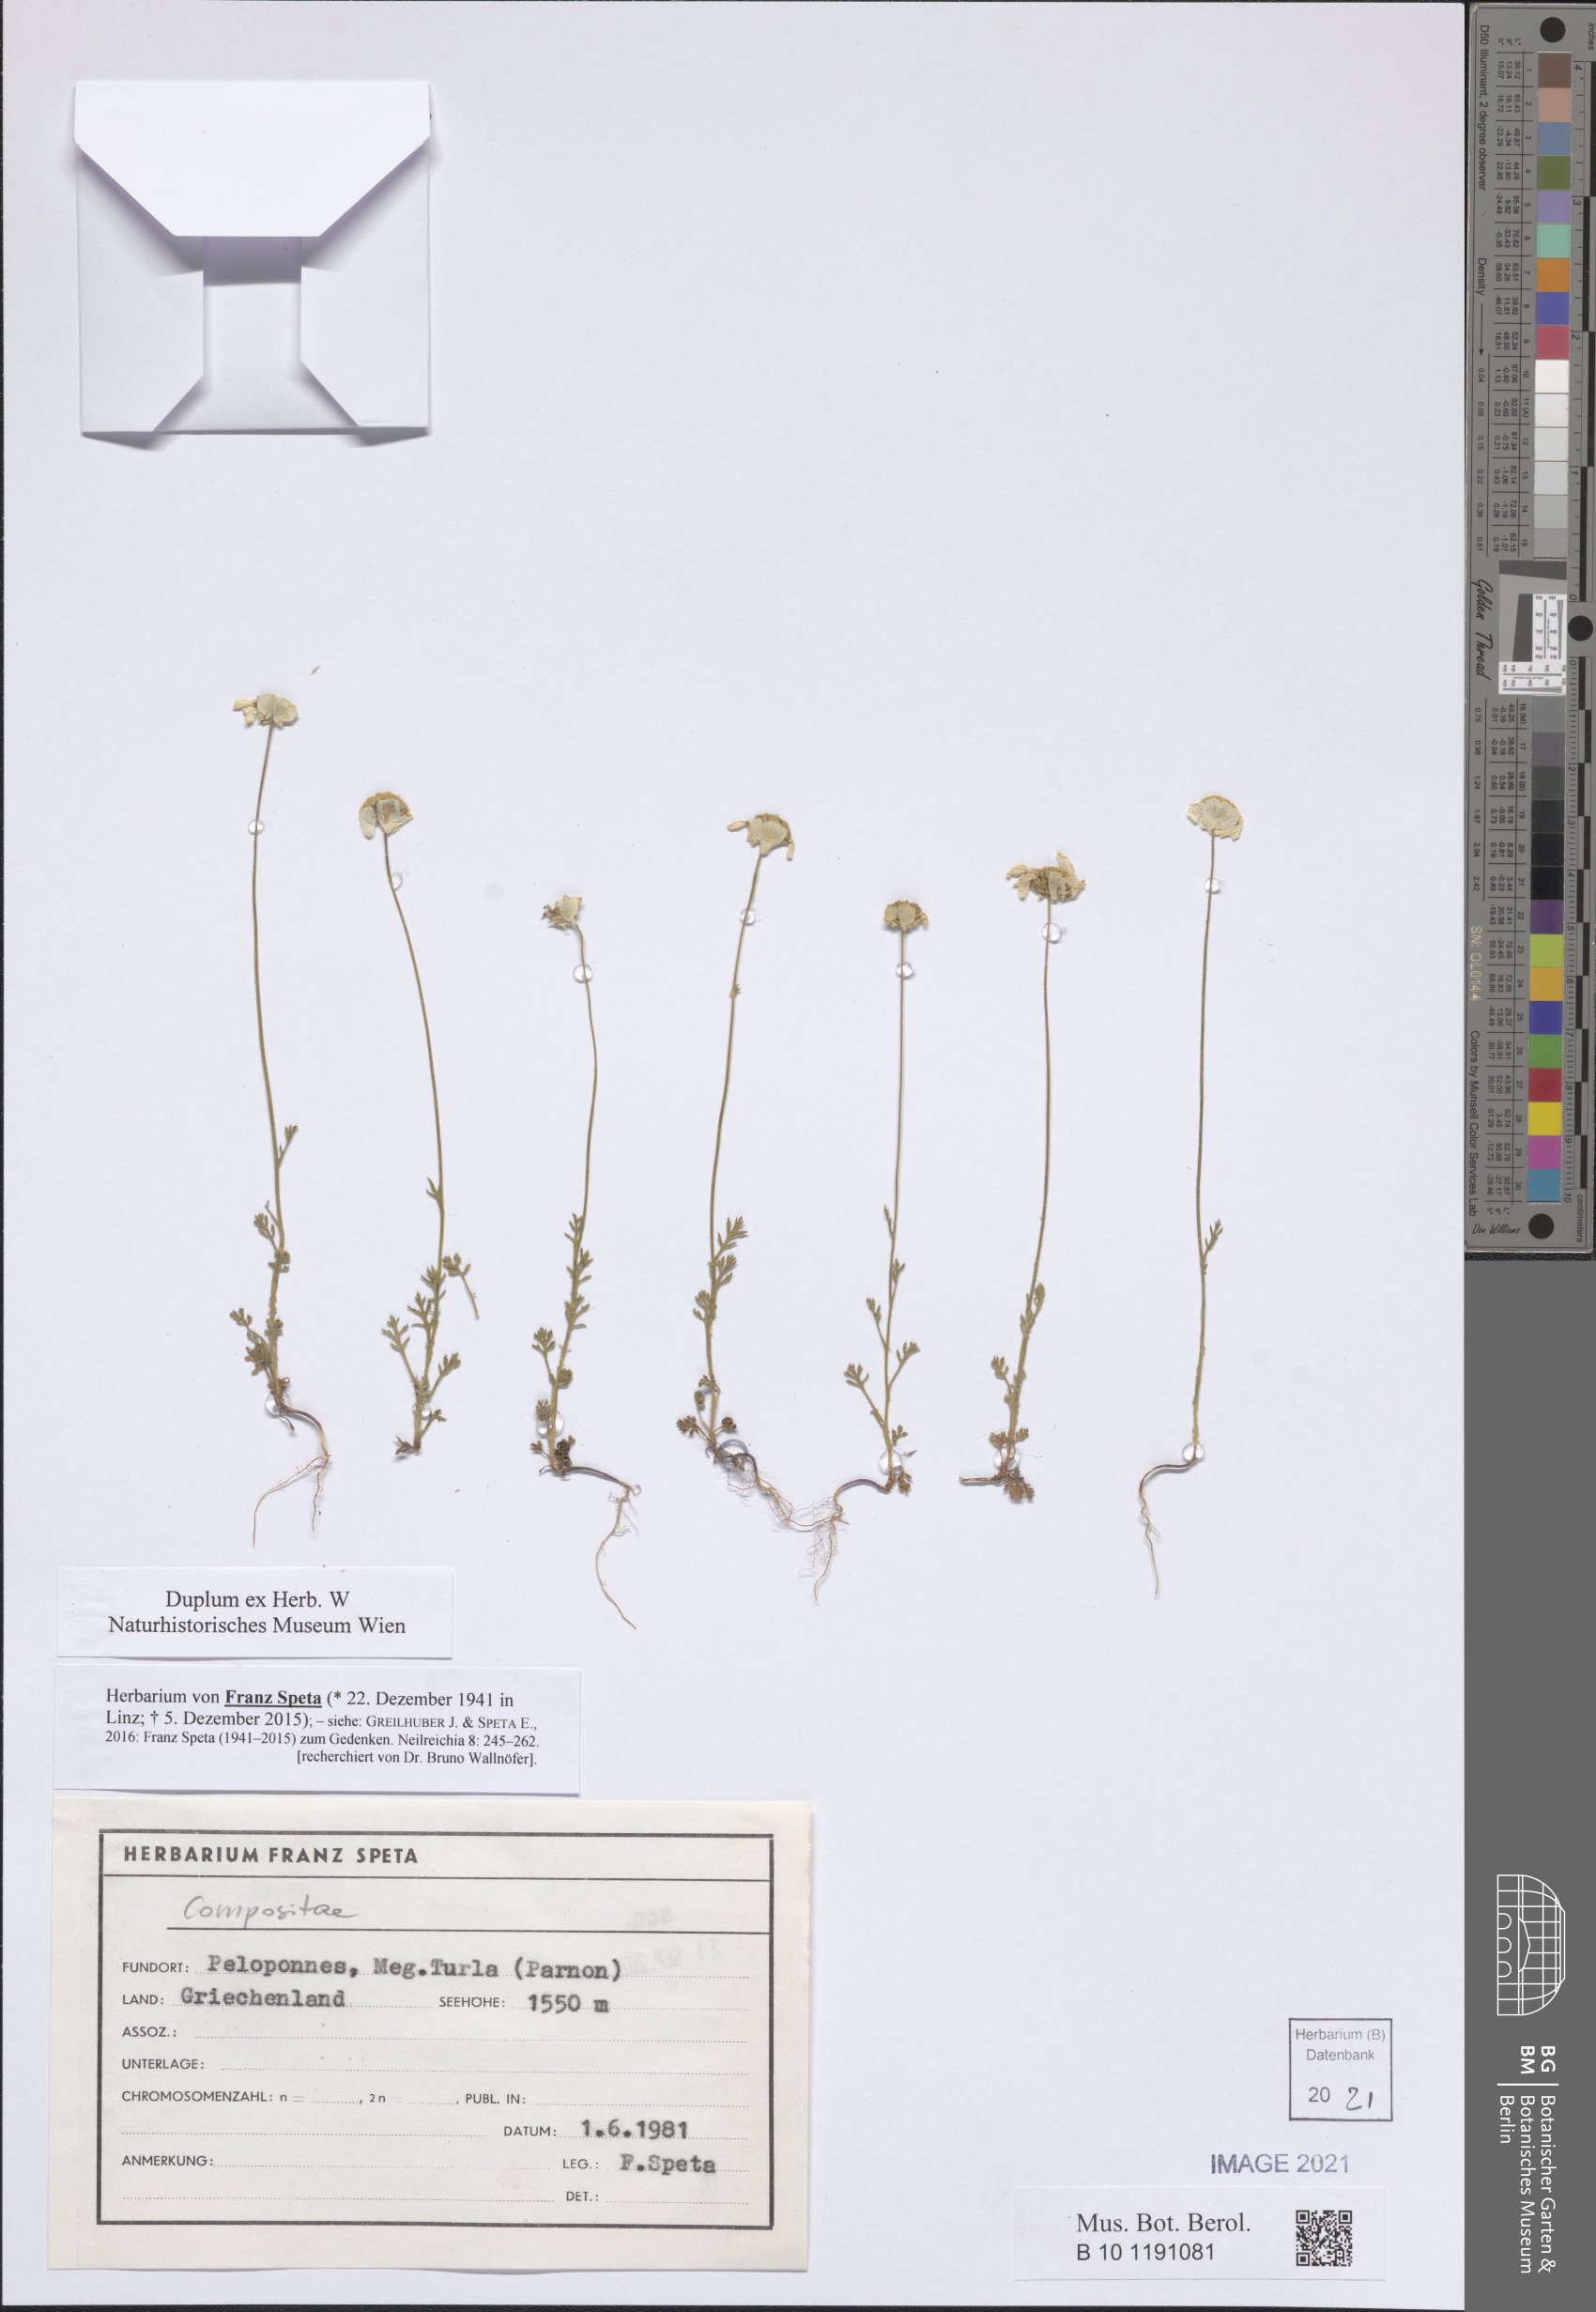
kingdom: Plantae
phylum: Tracheophyta
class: Magnoliopsida
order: Asterales
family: Asteraceae
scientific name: Asteraceae
